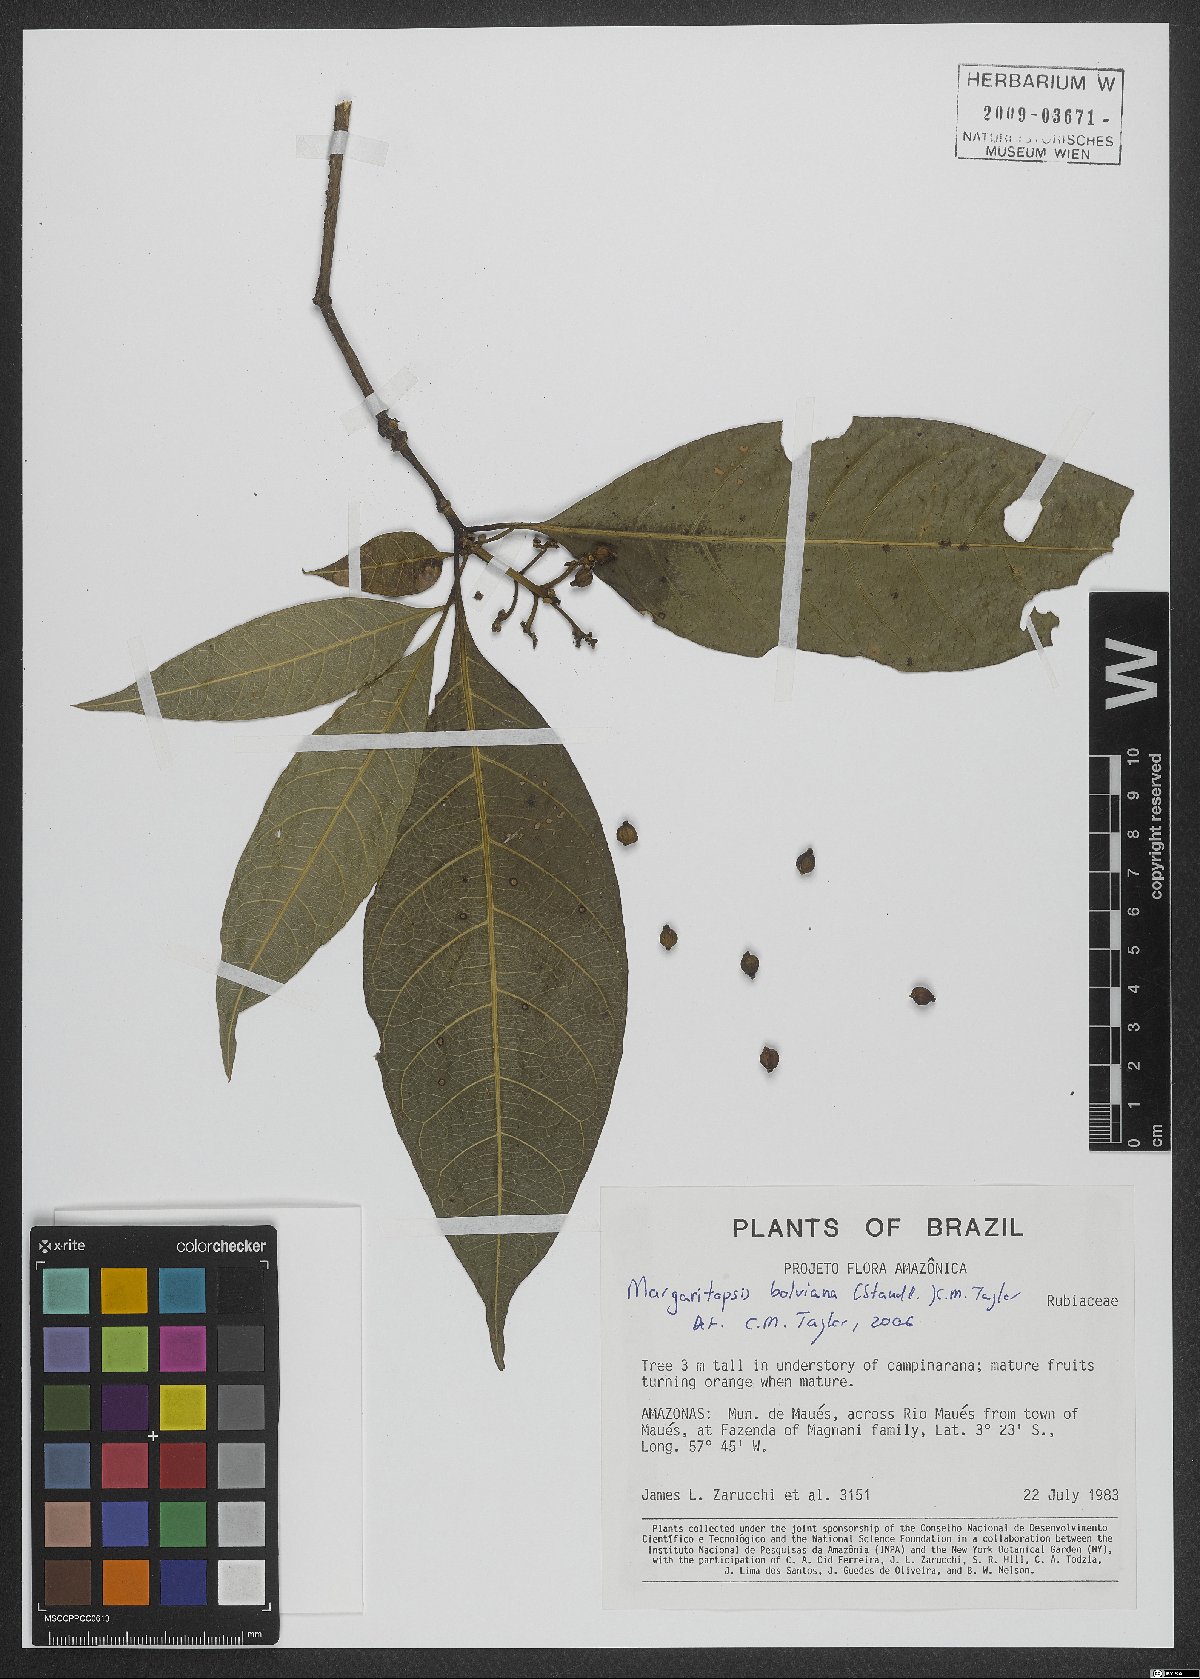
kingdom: Plantae
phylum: Tracheophyta
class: Magnoliopsida
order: Gentianales
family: Rubiaceae
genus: Eumachia
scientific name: Eumachia boliviana
